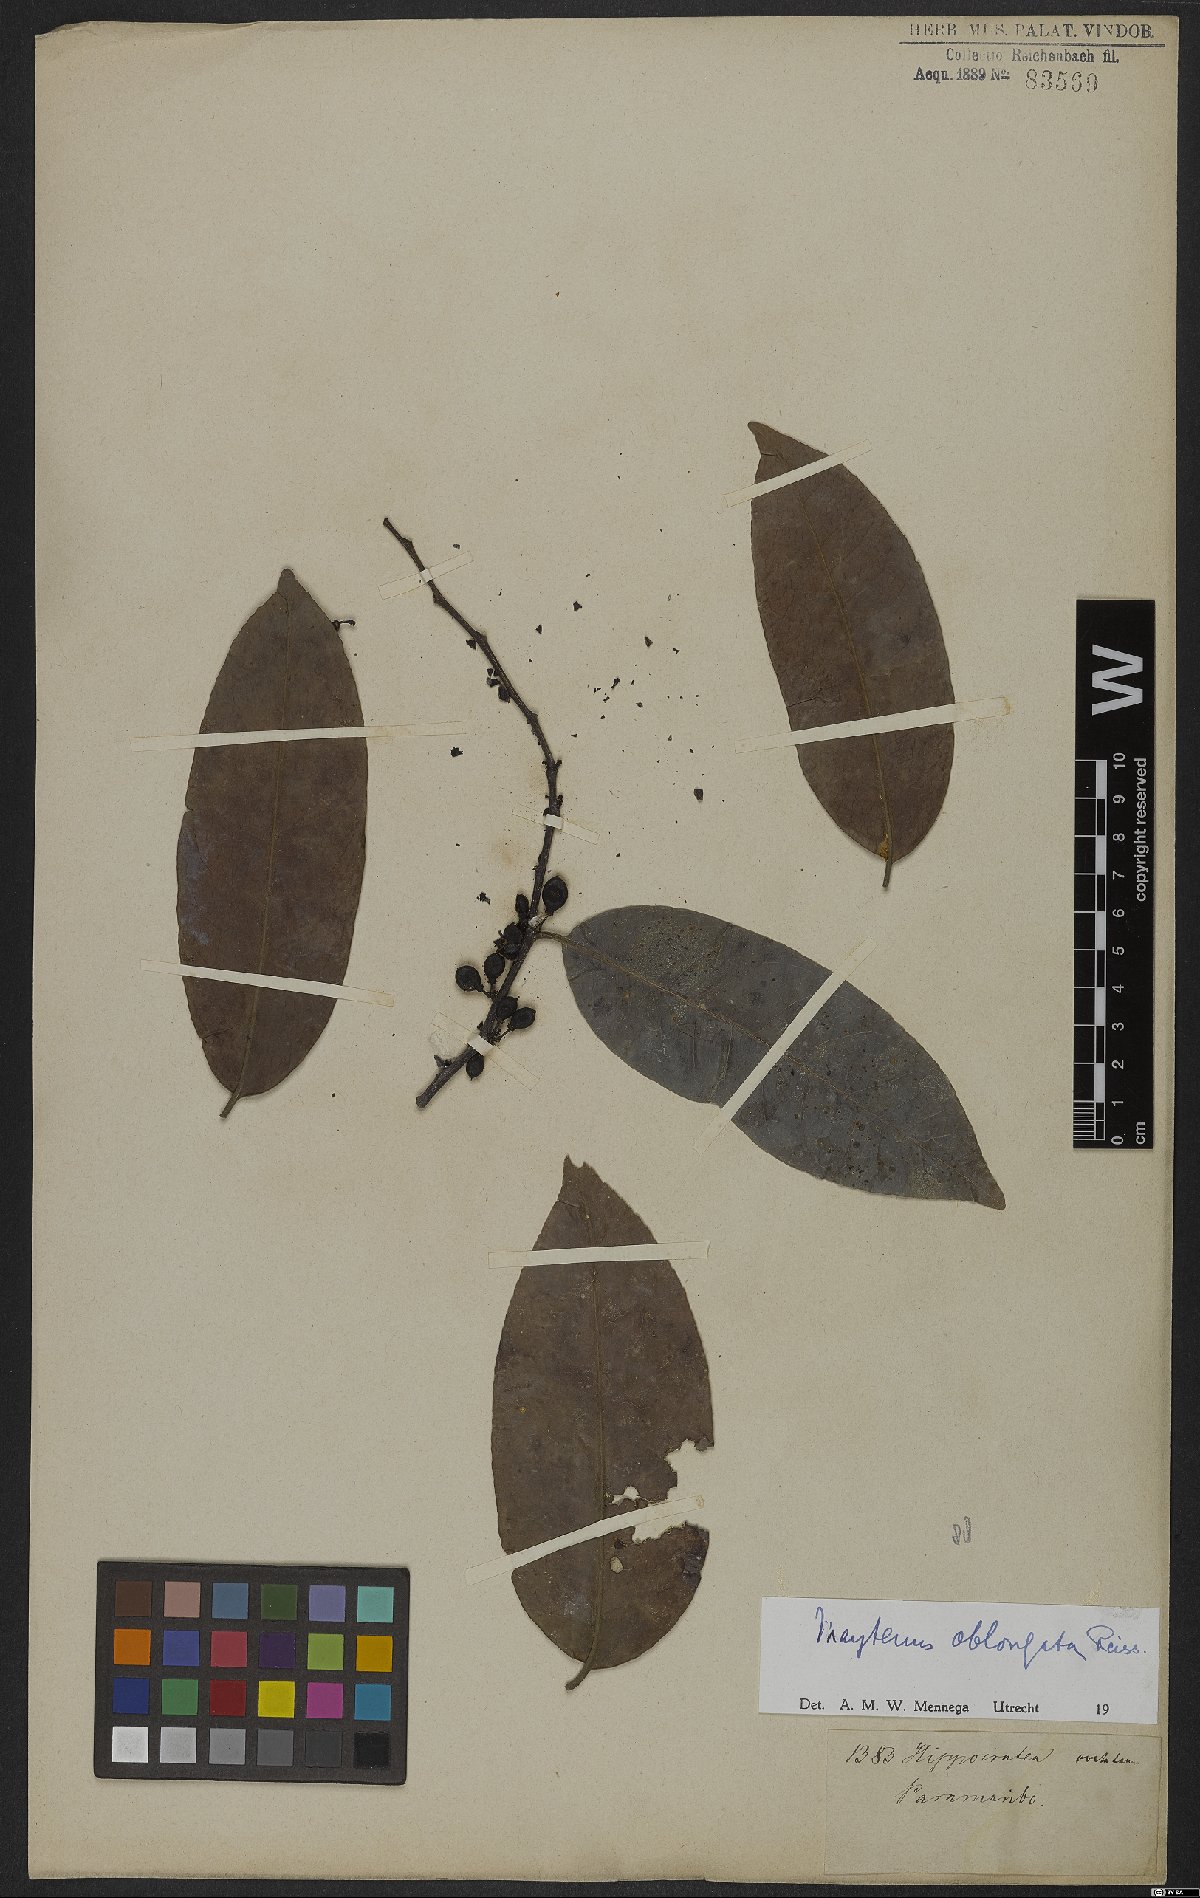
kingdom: Plantae
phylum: Tracheophyta
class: Magnoliopsida
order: Celastrales
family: Celastraceae
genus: Monteverdia
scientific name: Monteverdia oblongata
